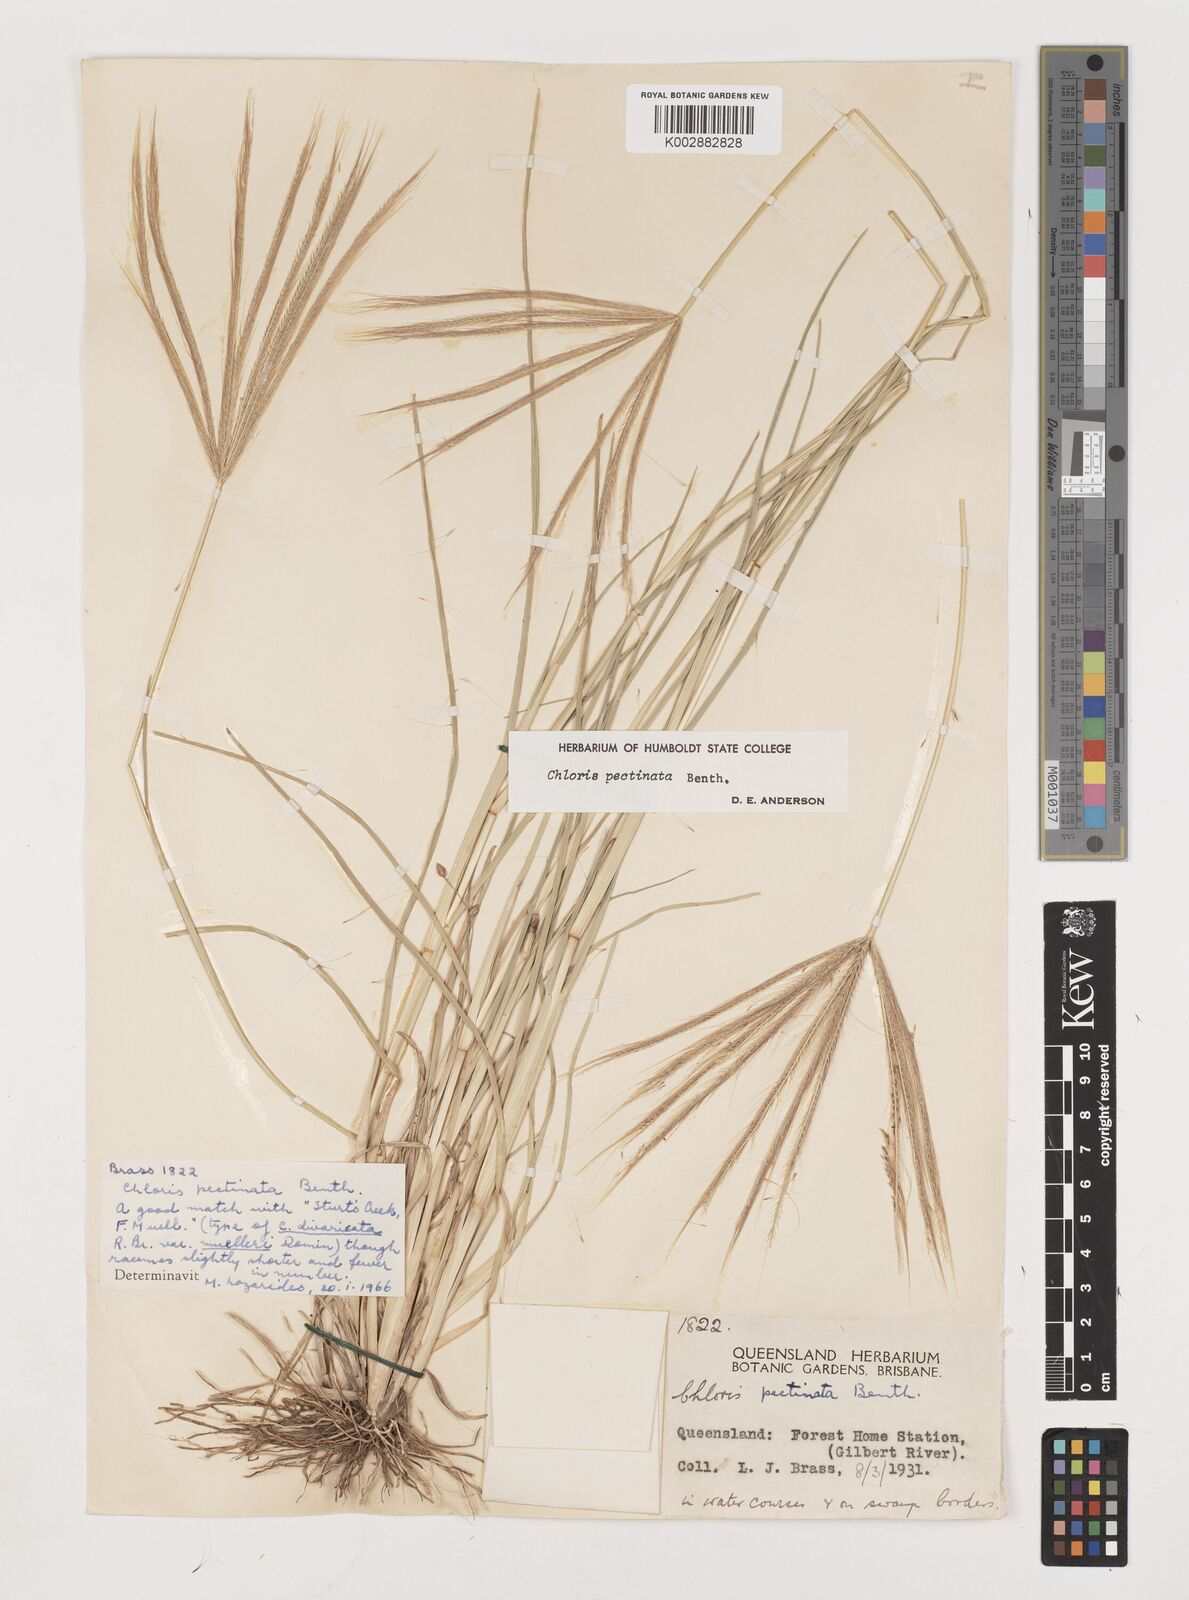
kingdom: Plantae
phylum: Tracheophyta
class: Liliopsida
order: Poales
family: Poaceae
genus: Chloris
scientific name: Chloris pectinata
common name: Comb windmill grass
